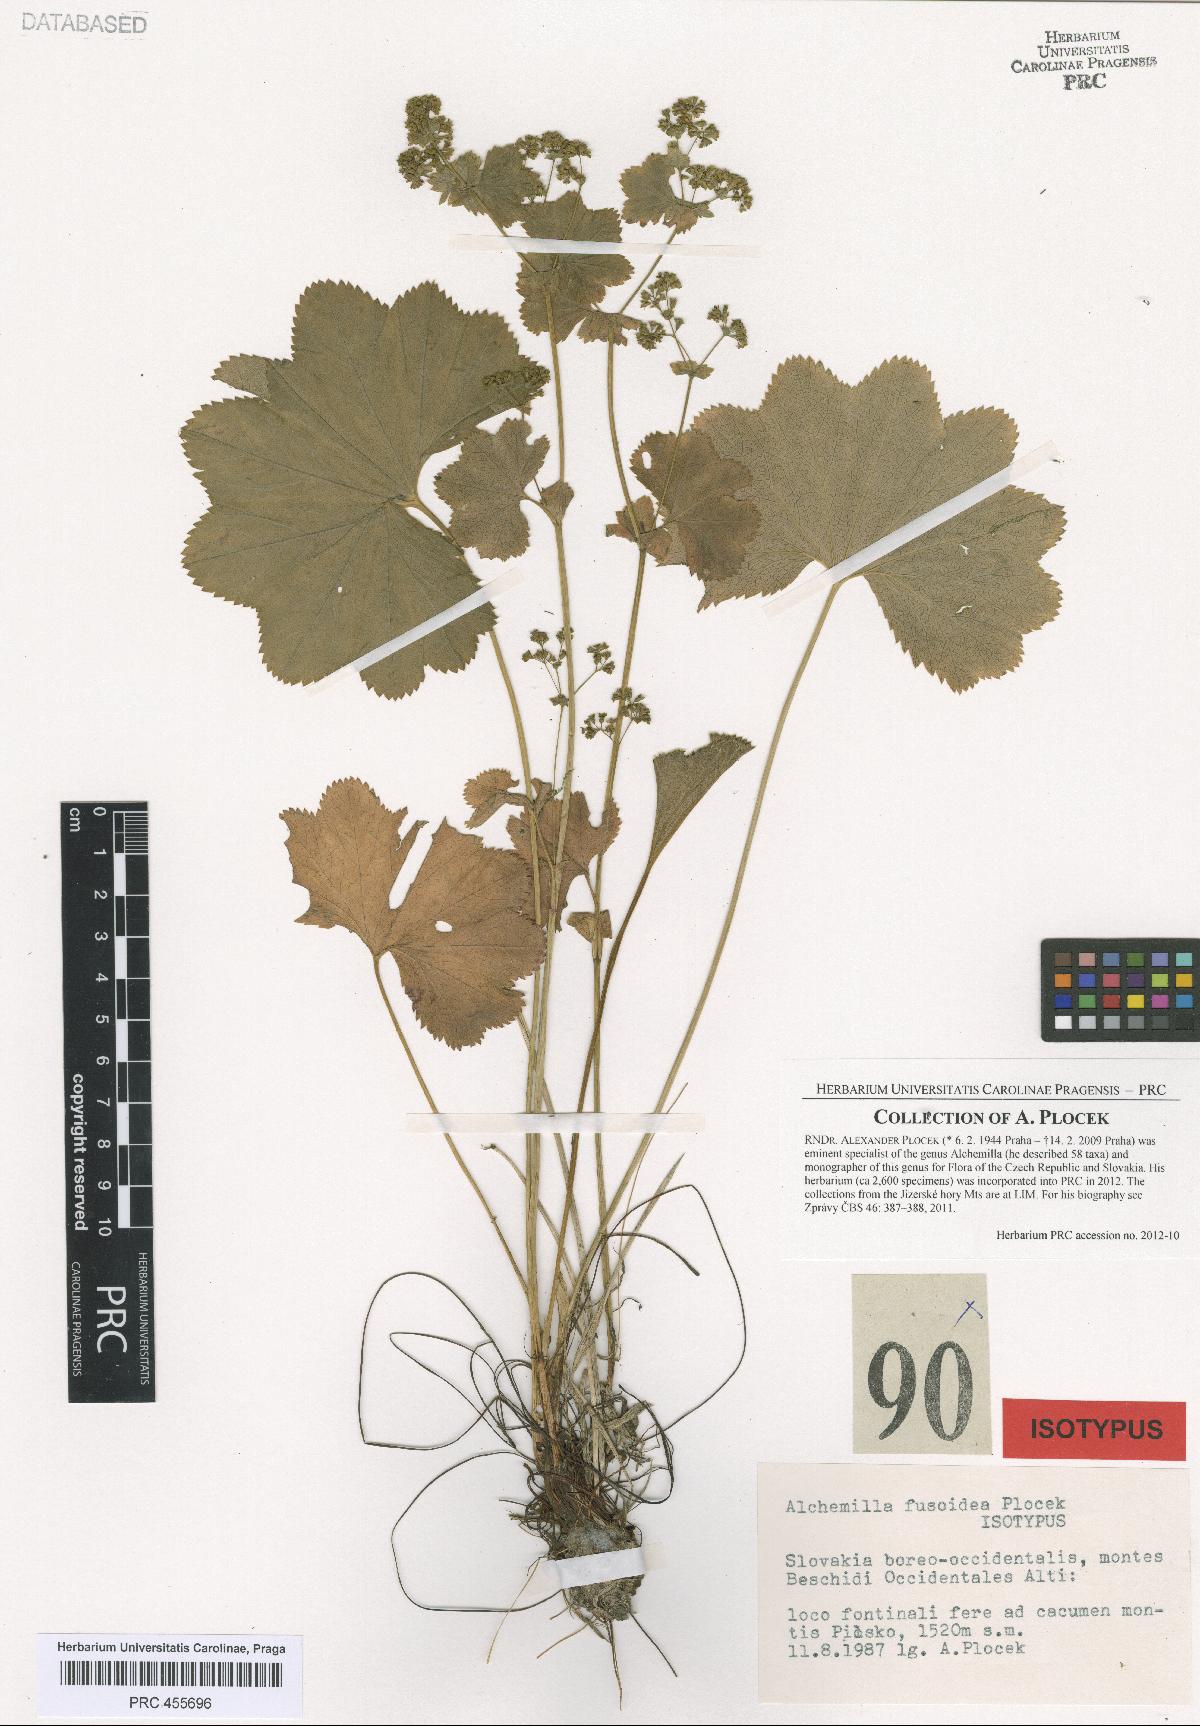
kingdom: Plantae
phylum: Tracheophyta
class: Magnoliopsida
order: Rosales
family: Rosaceae
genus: Alchemilla
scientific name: Alchemilla fusoidea
